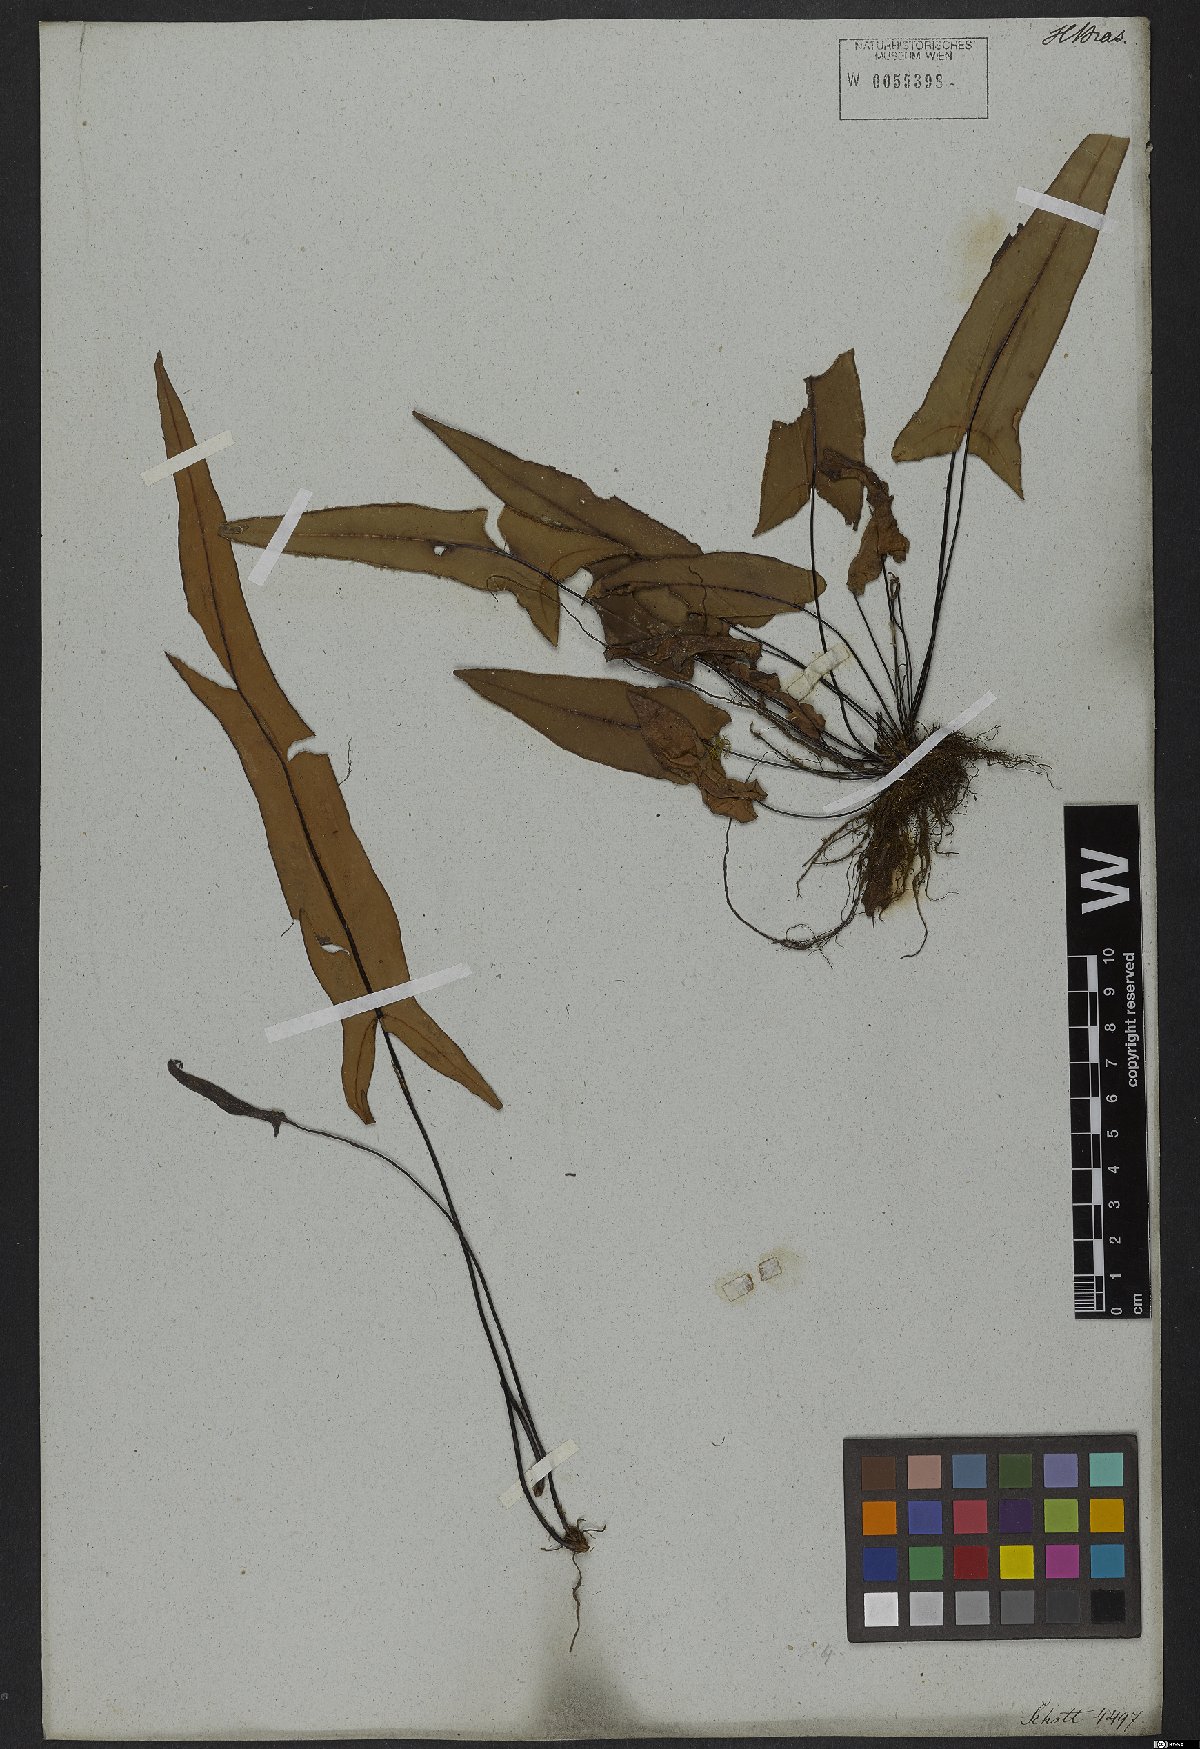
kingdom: Plantae
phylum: Tracheophyta
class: Polypodiopsida
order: Polypodiales
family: Pteridaceae
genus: Doryopteris
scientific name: Doryopteris sagittifolia
